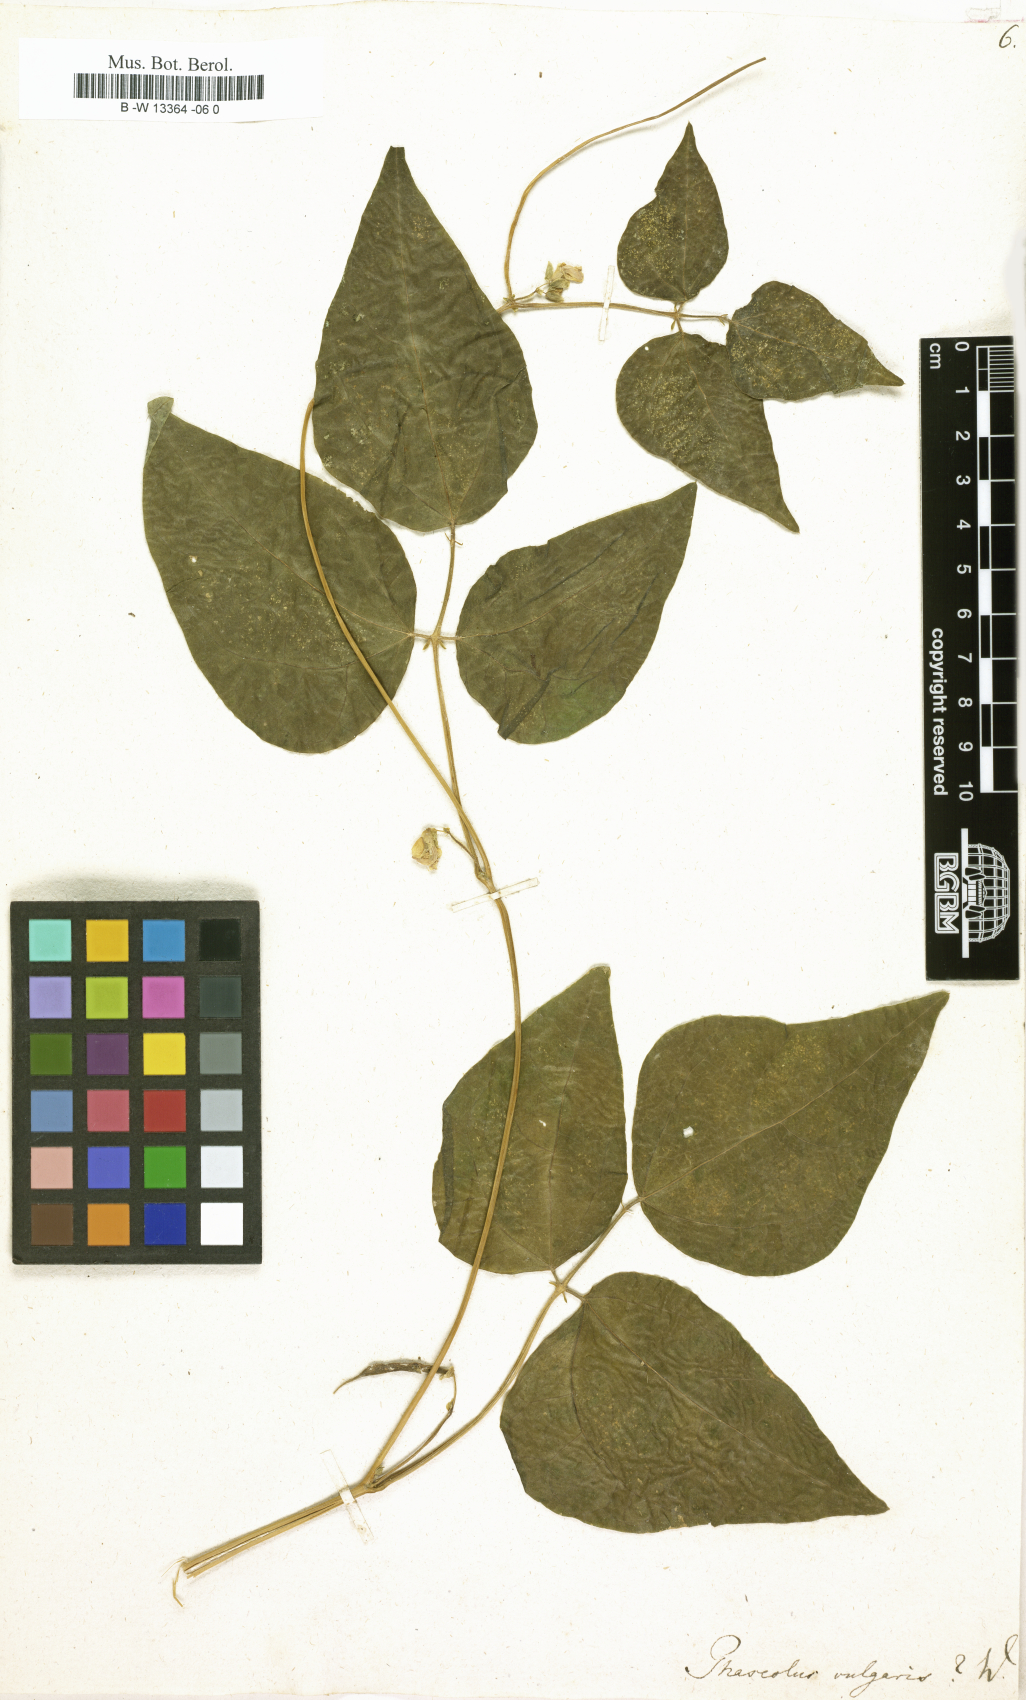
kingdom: Plantae
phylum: Tracheophyta
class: Magnoliopsida
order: Fabales
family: Fabaceae
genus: Phaseolus
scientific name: Phaseolus vulgaris
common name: Bean
